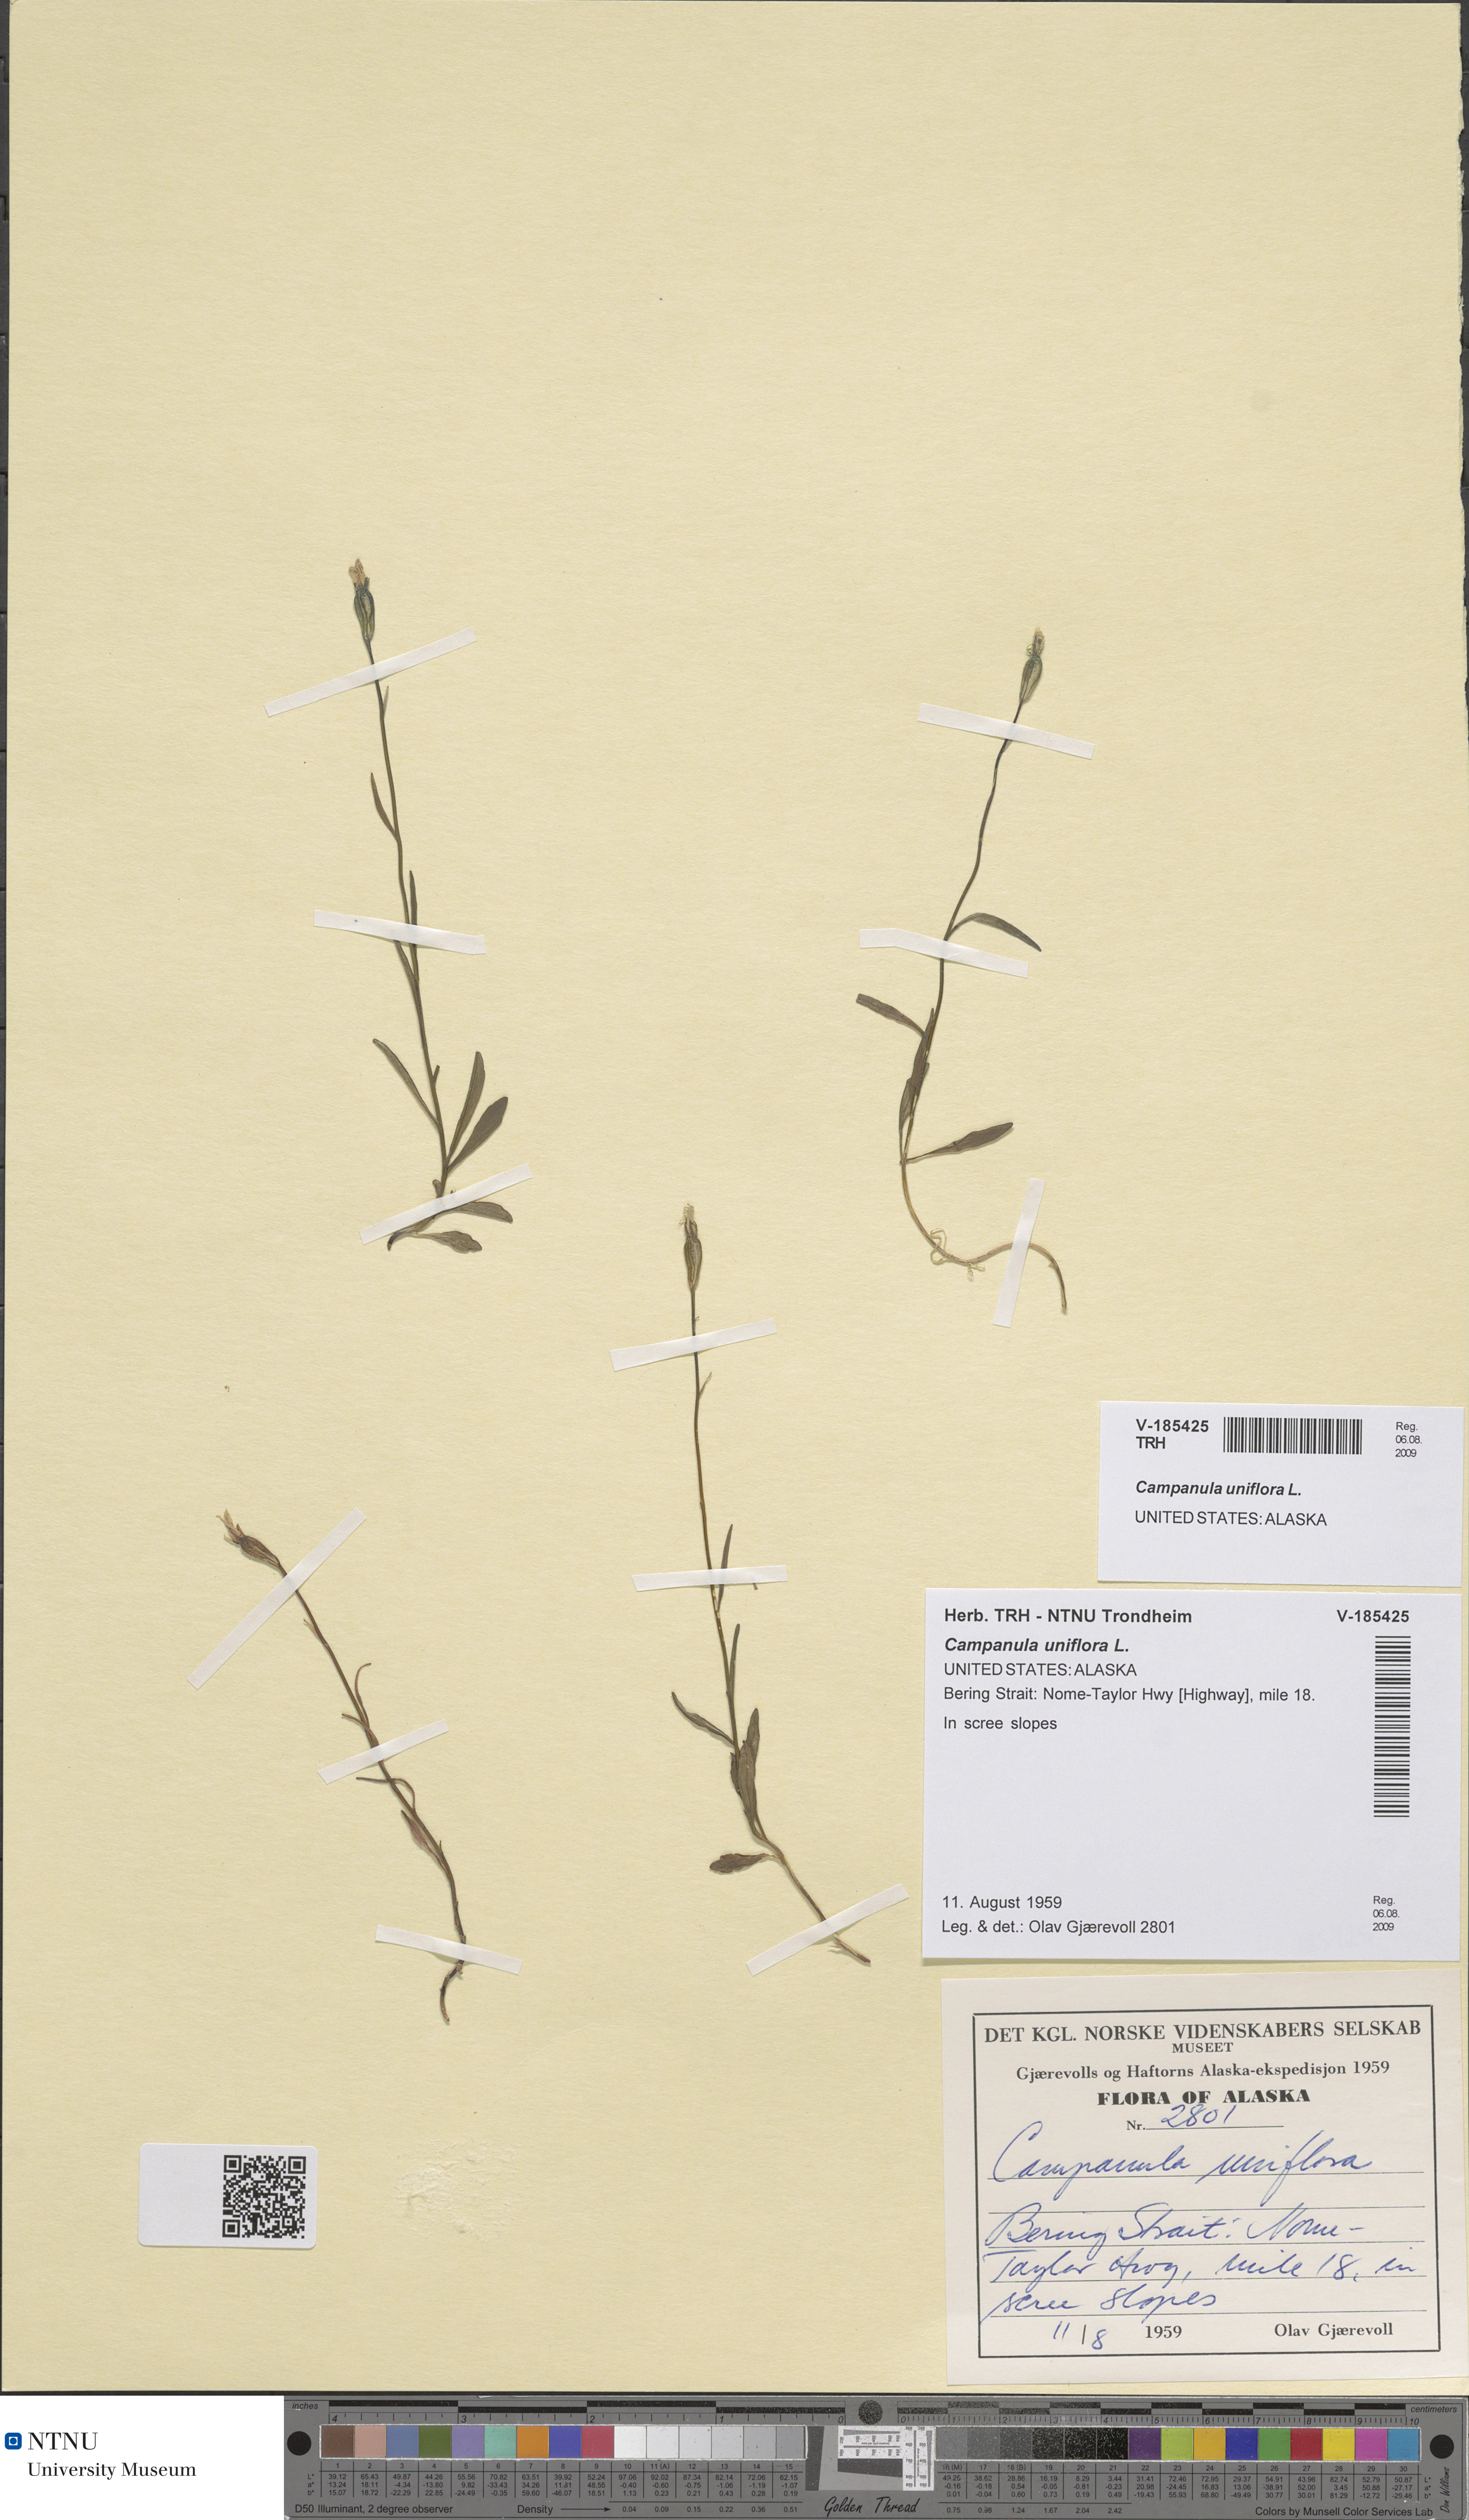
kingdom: Plantae
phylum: Tracheophyta
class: Magnoliopsida
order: Asterales
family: Campanulaceae
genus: Melanocalyx
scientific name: Melanocalyx uniflora
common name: Alpine harebell
